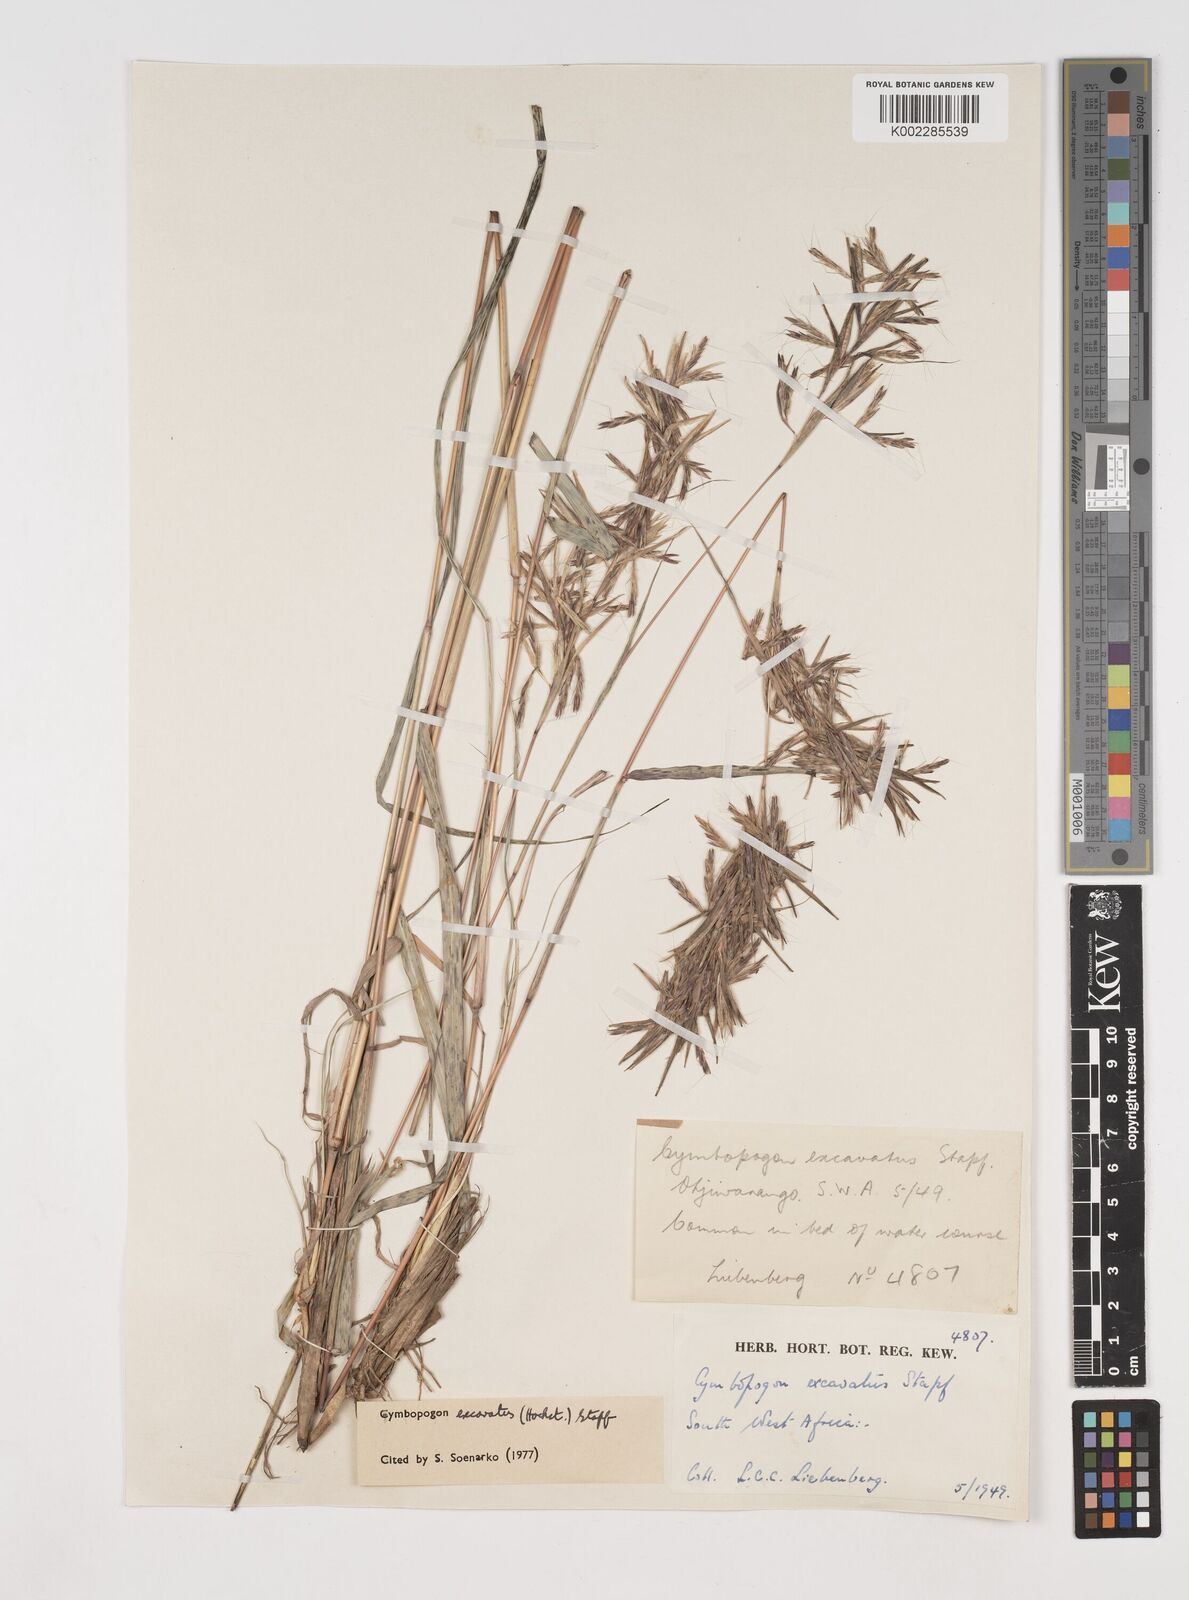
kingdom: Plantae
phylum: Tracheophyta
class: Liliopsida
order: Poales
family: Poaceae
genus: Cymbopogon
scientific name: Cymbopogon caesius
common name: Kachi grass
